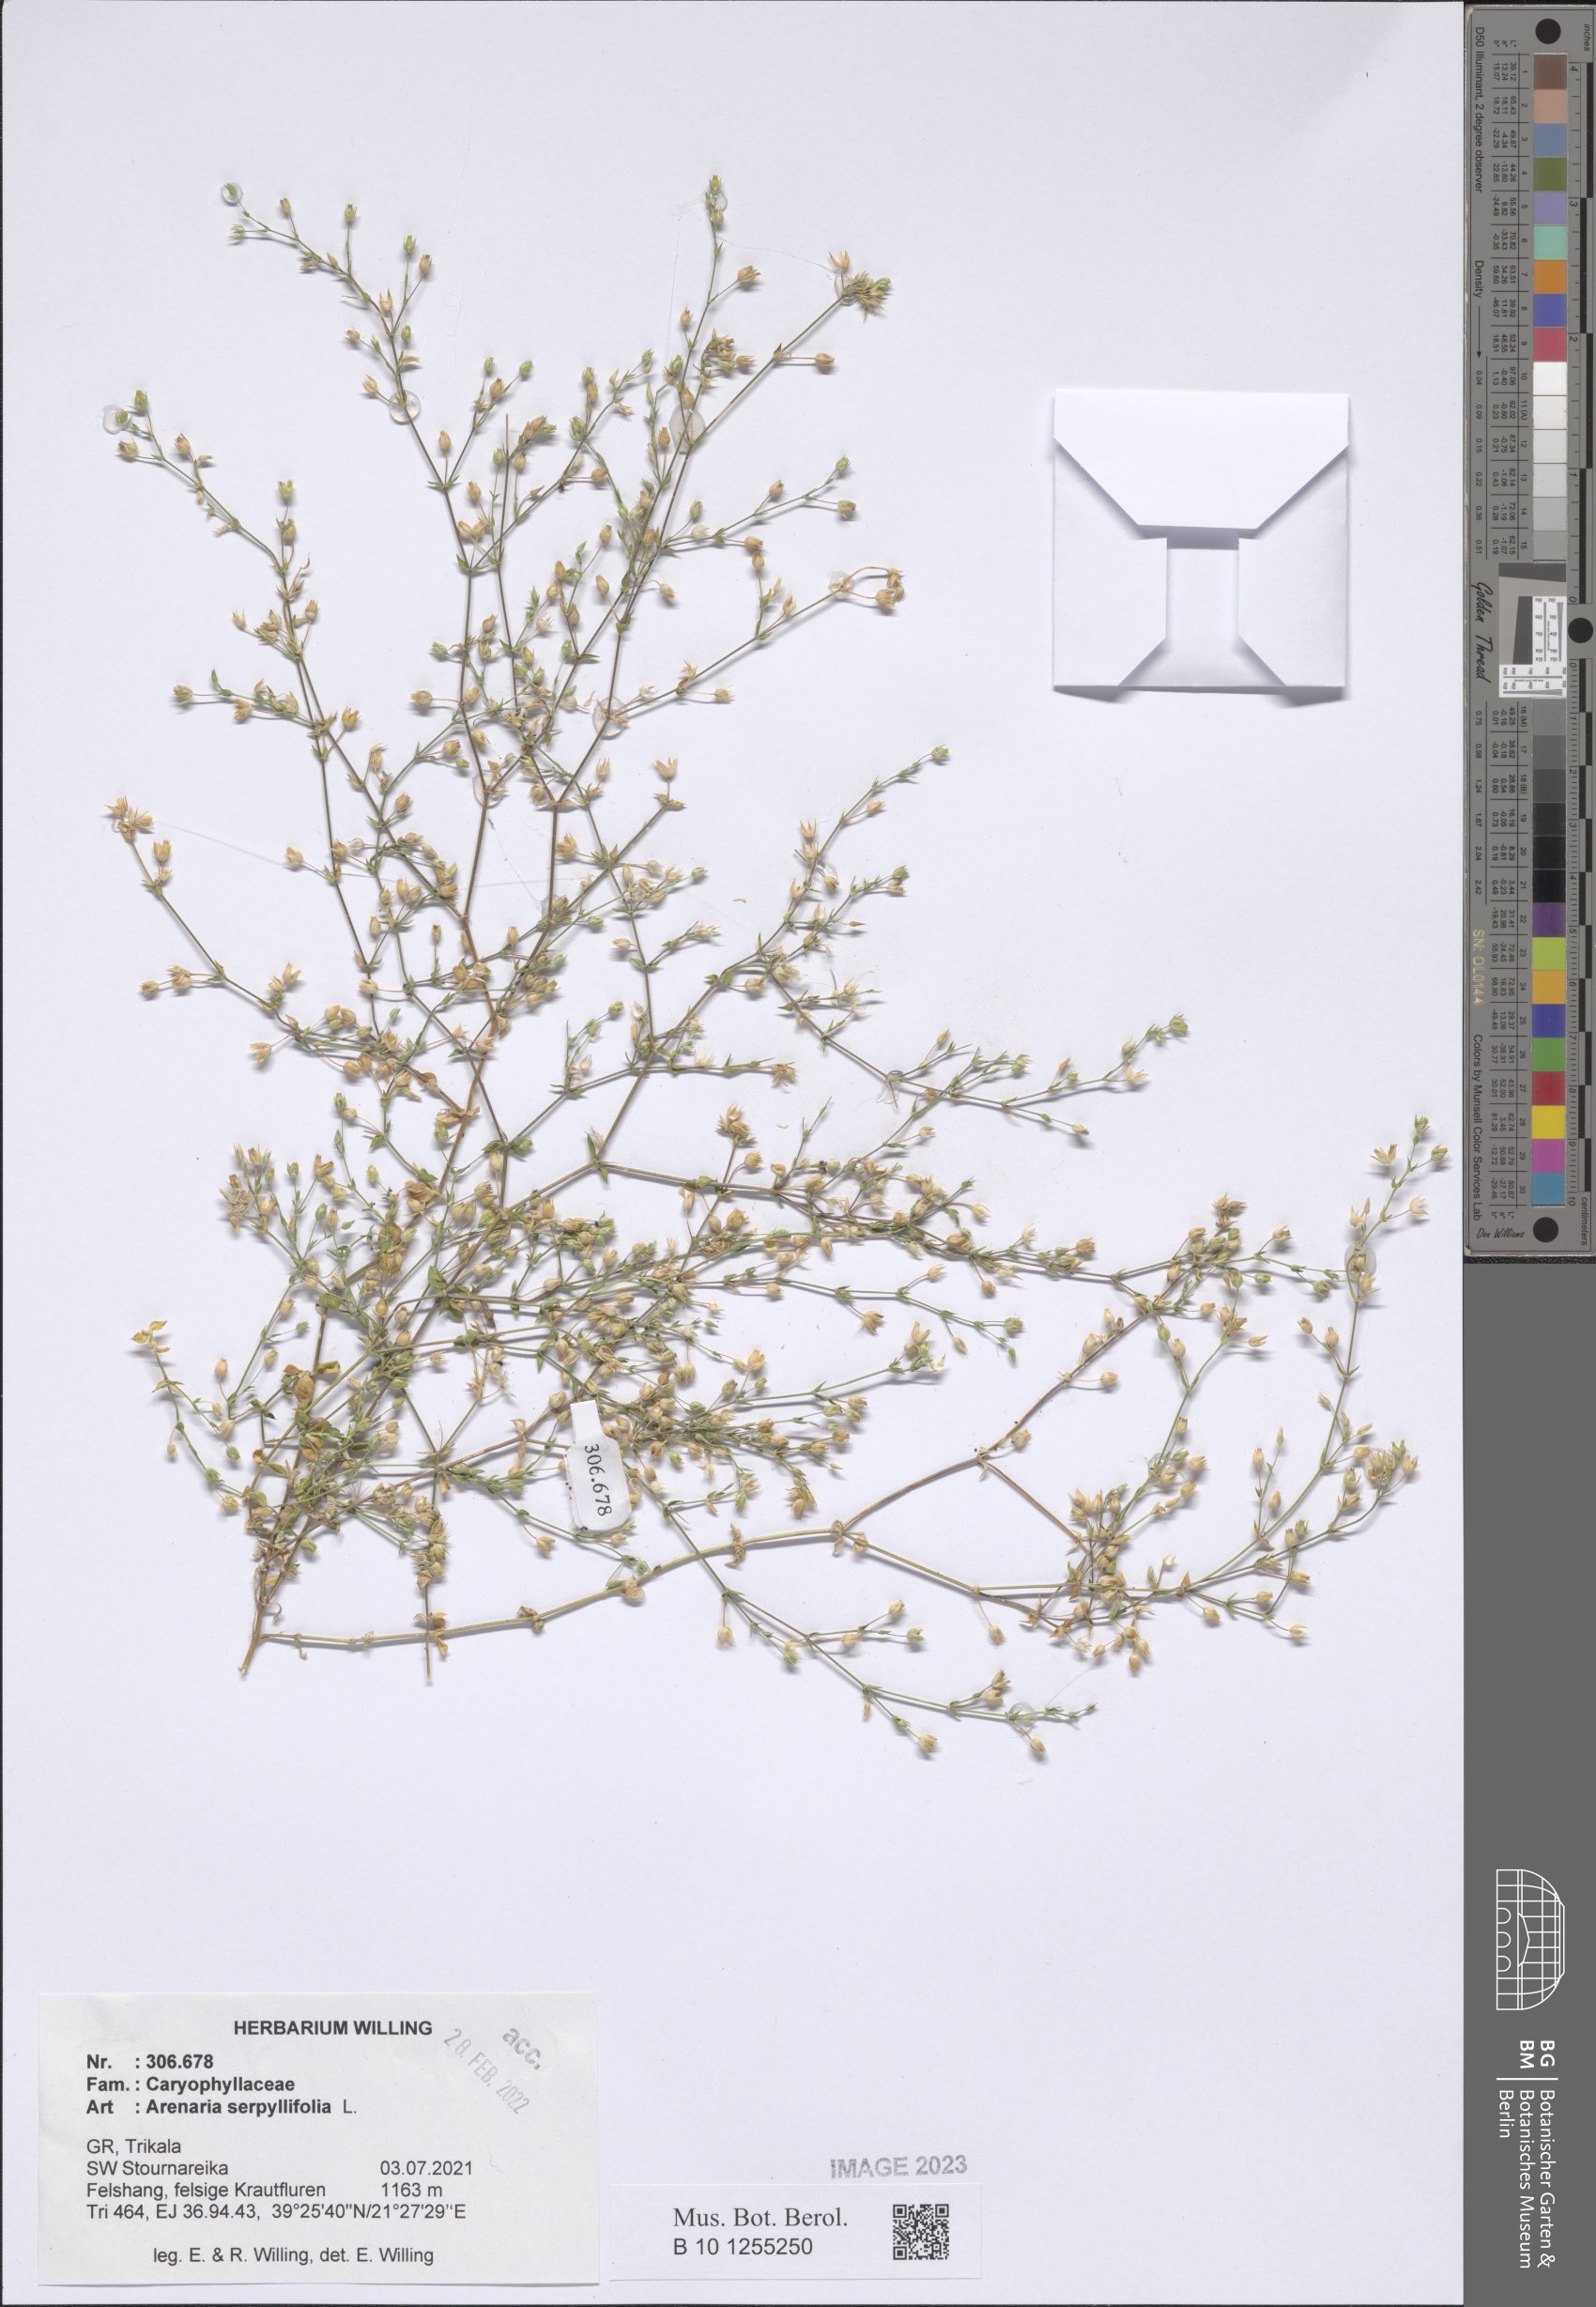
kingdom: Plantae
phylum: Tracheophyta
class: Magnoliopsida
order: Caryophyllales
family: Caryophyllaceae
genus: Arenaria
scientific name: Arenaria serpyllifolia
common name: Thyme-leaved sandwort
